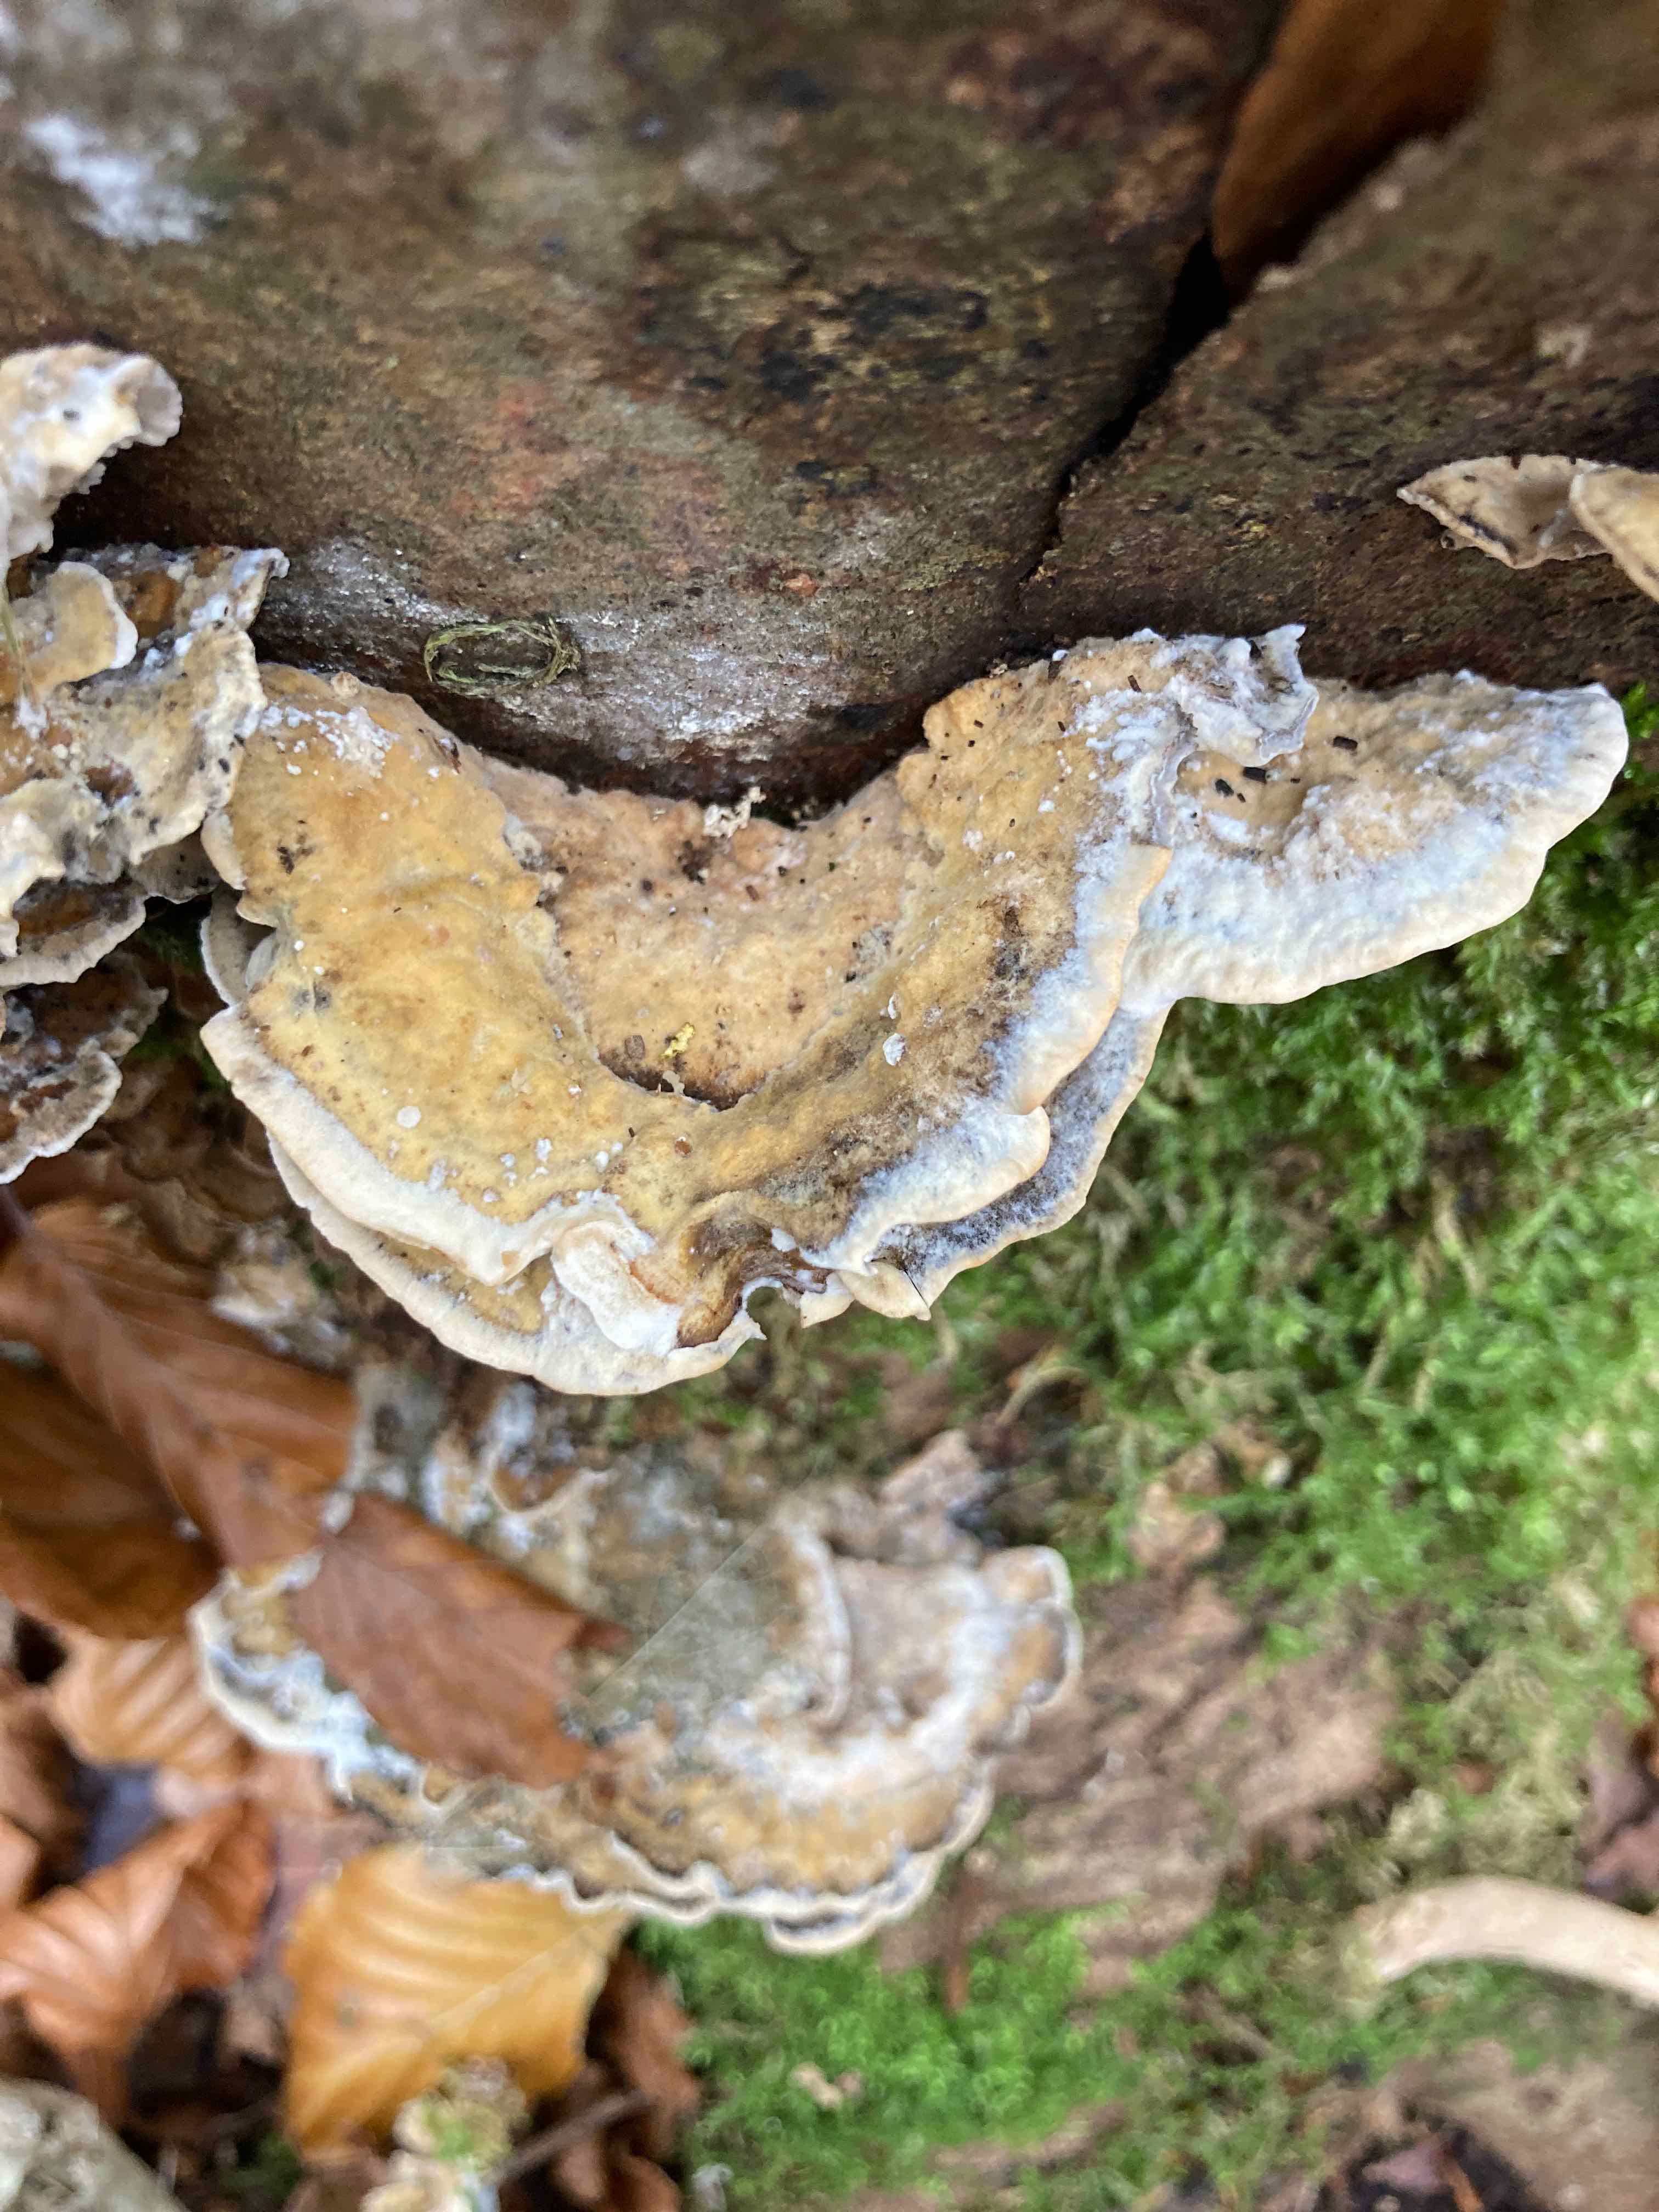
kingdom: Fungi
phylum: Basidiomycota
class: Agaricomycetes
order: Polyporales
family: Phanerochaetaceae
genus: Bjerkandera
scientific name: Bjerkandera adusta
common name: sveden sodporesvamp
